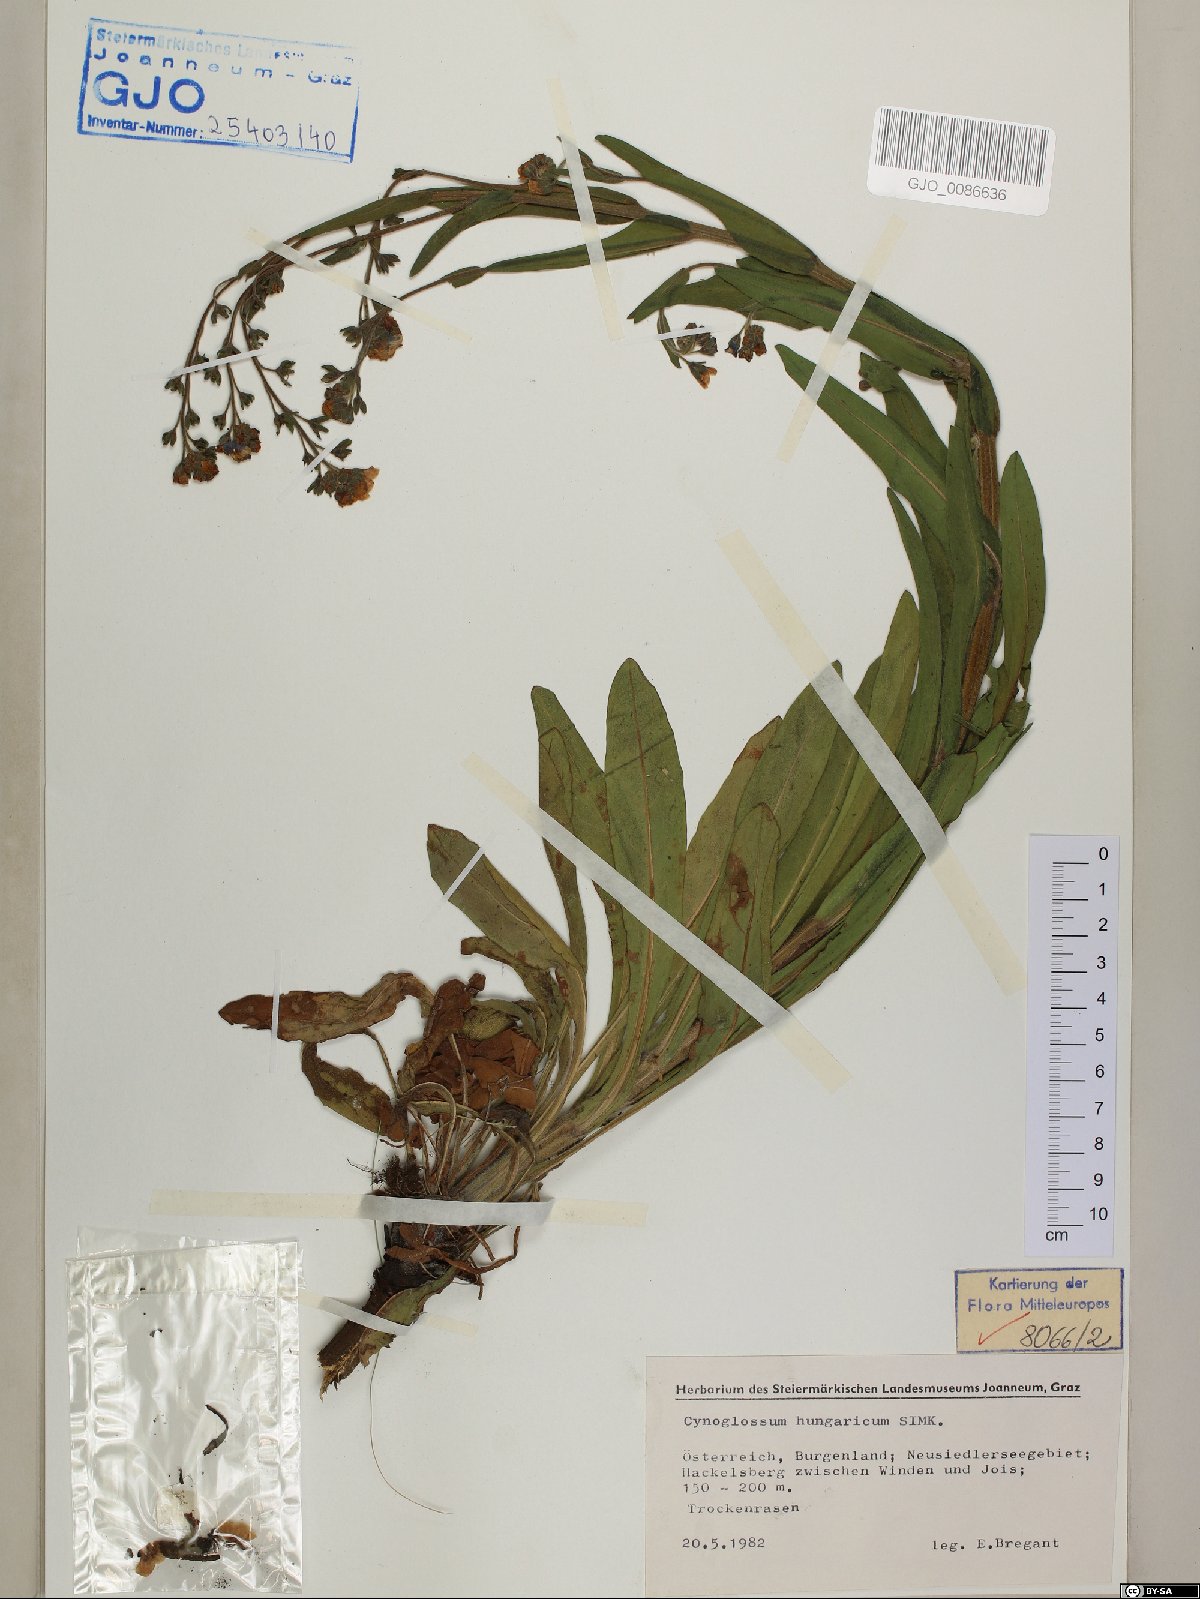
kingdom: Plantae
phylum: Tracheophyta
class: Magnoliopsida
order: Boraginales
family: Boraginaceae
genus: Cynoglossum
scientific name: Cynoglossum montanum
